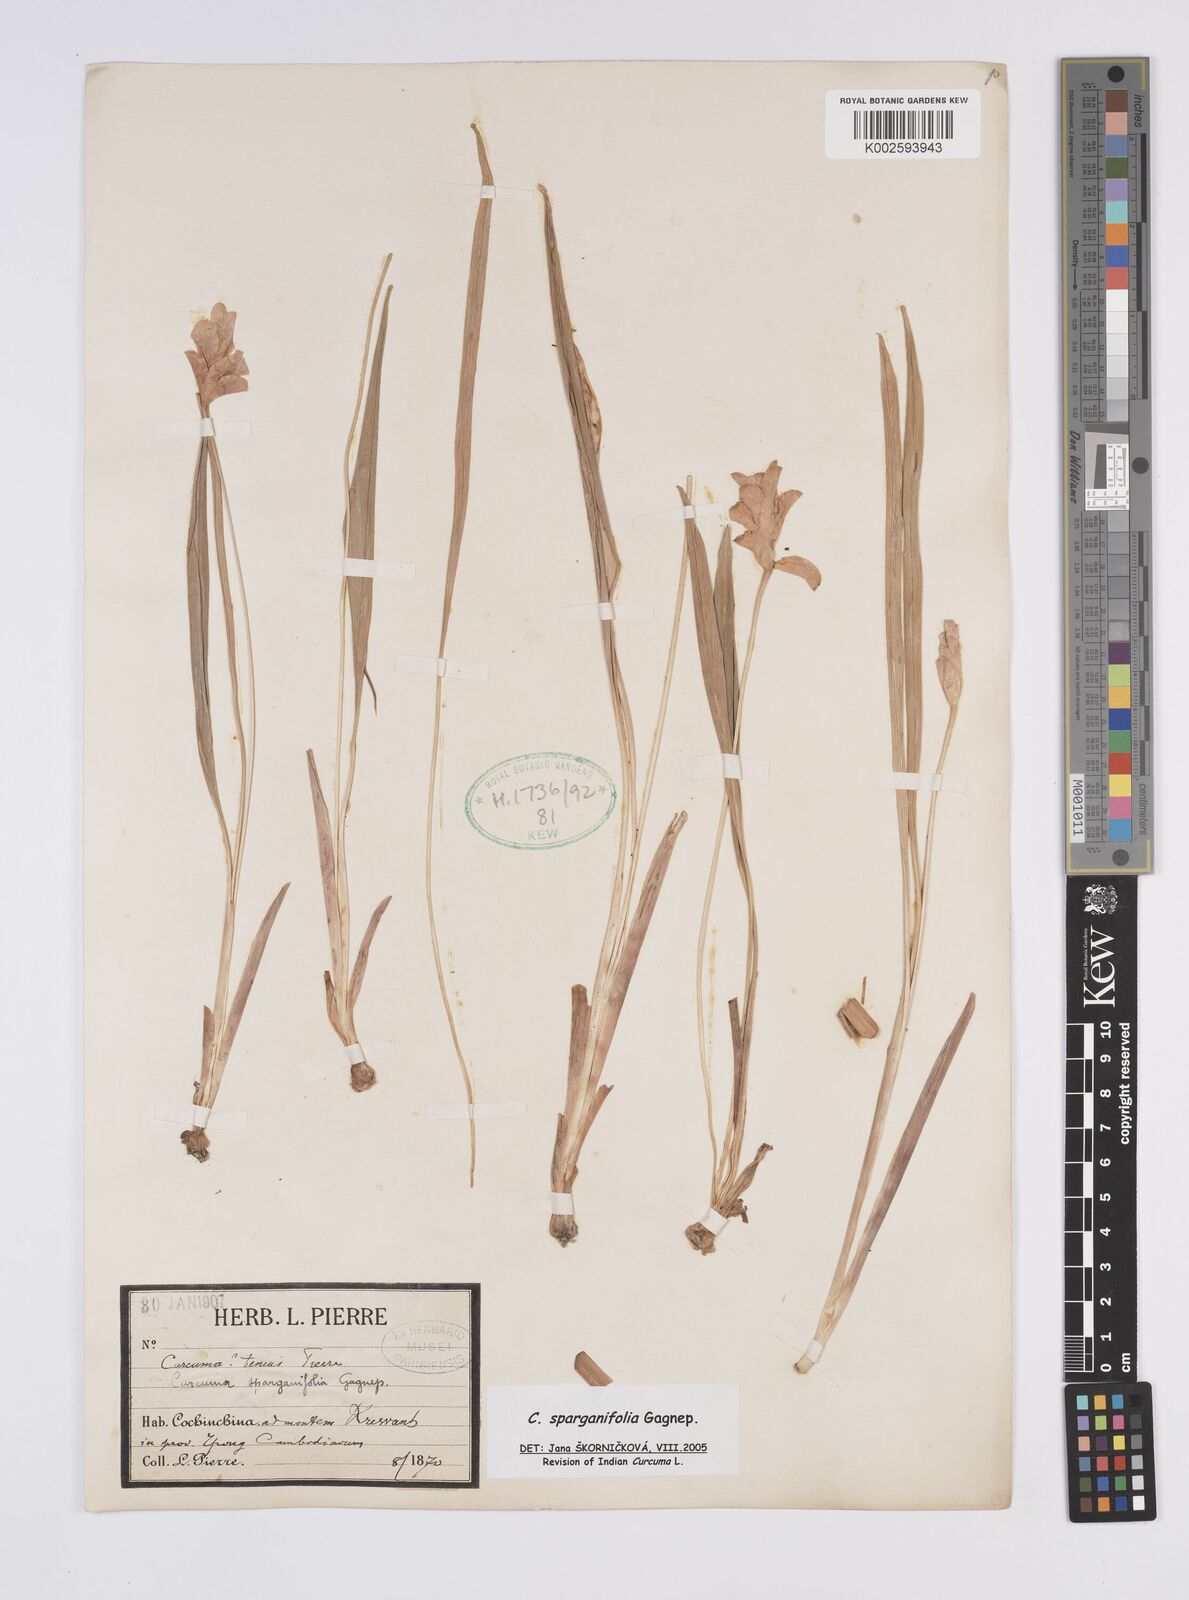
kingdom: Plantae
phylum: Tracheophyta
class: Liliopsida
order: Zingiberales
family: Zingiberaceae
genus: Curcuma
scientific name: Curcuma sparganiifolia
